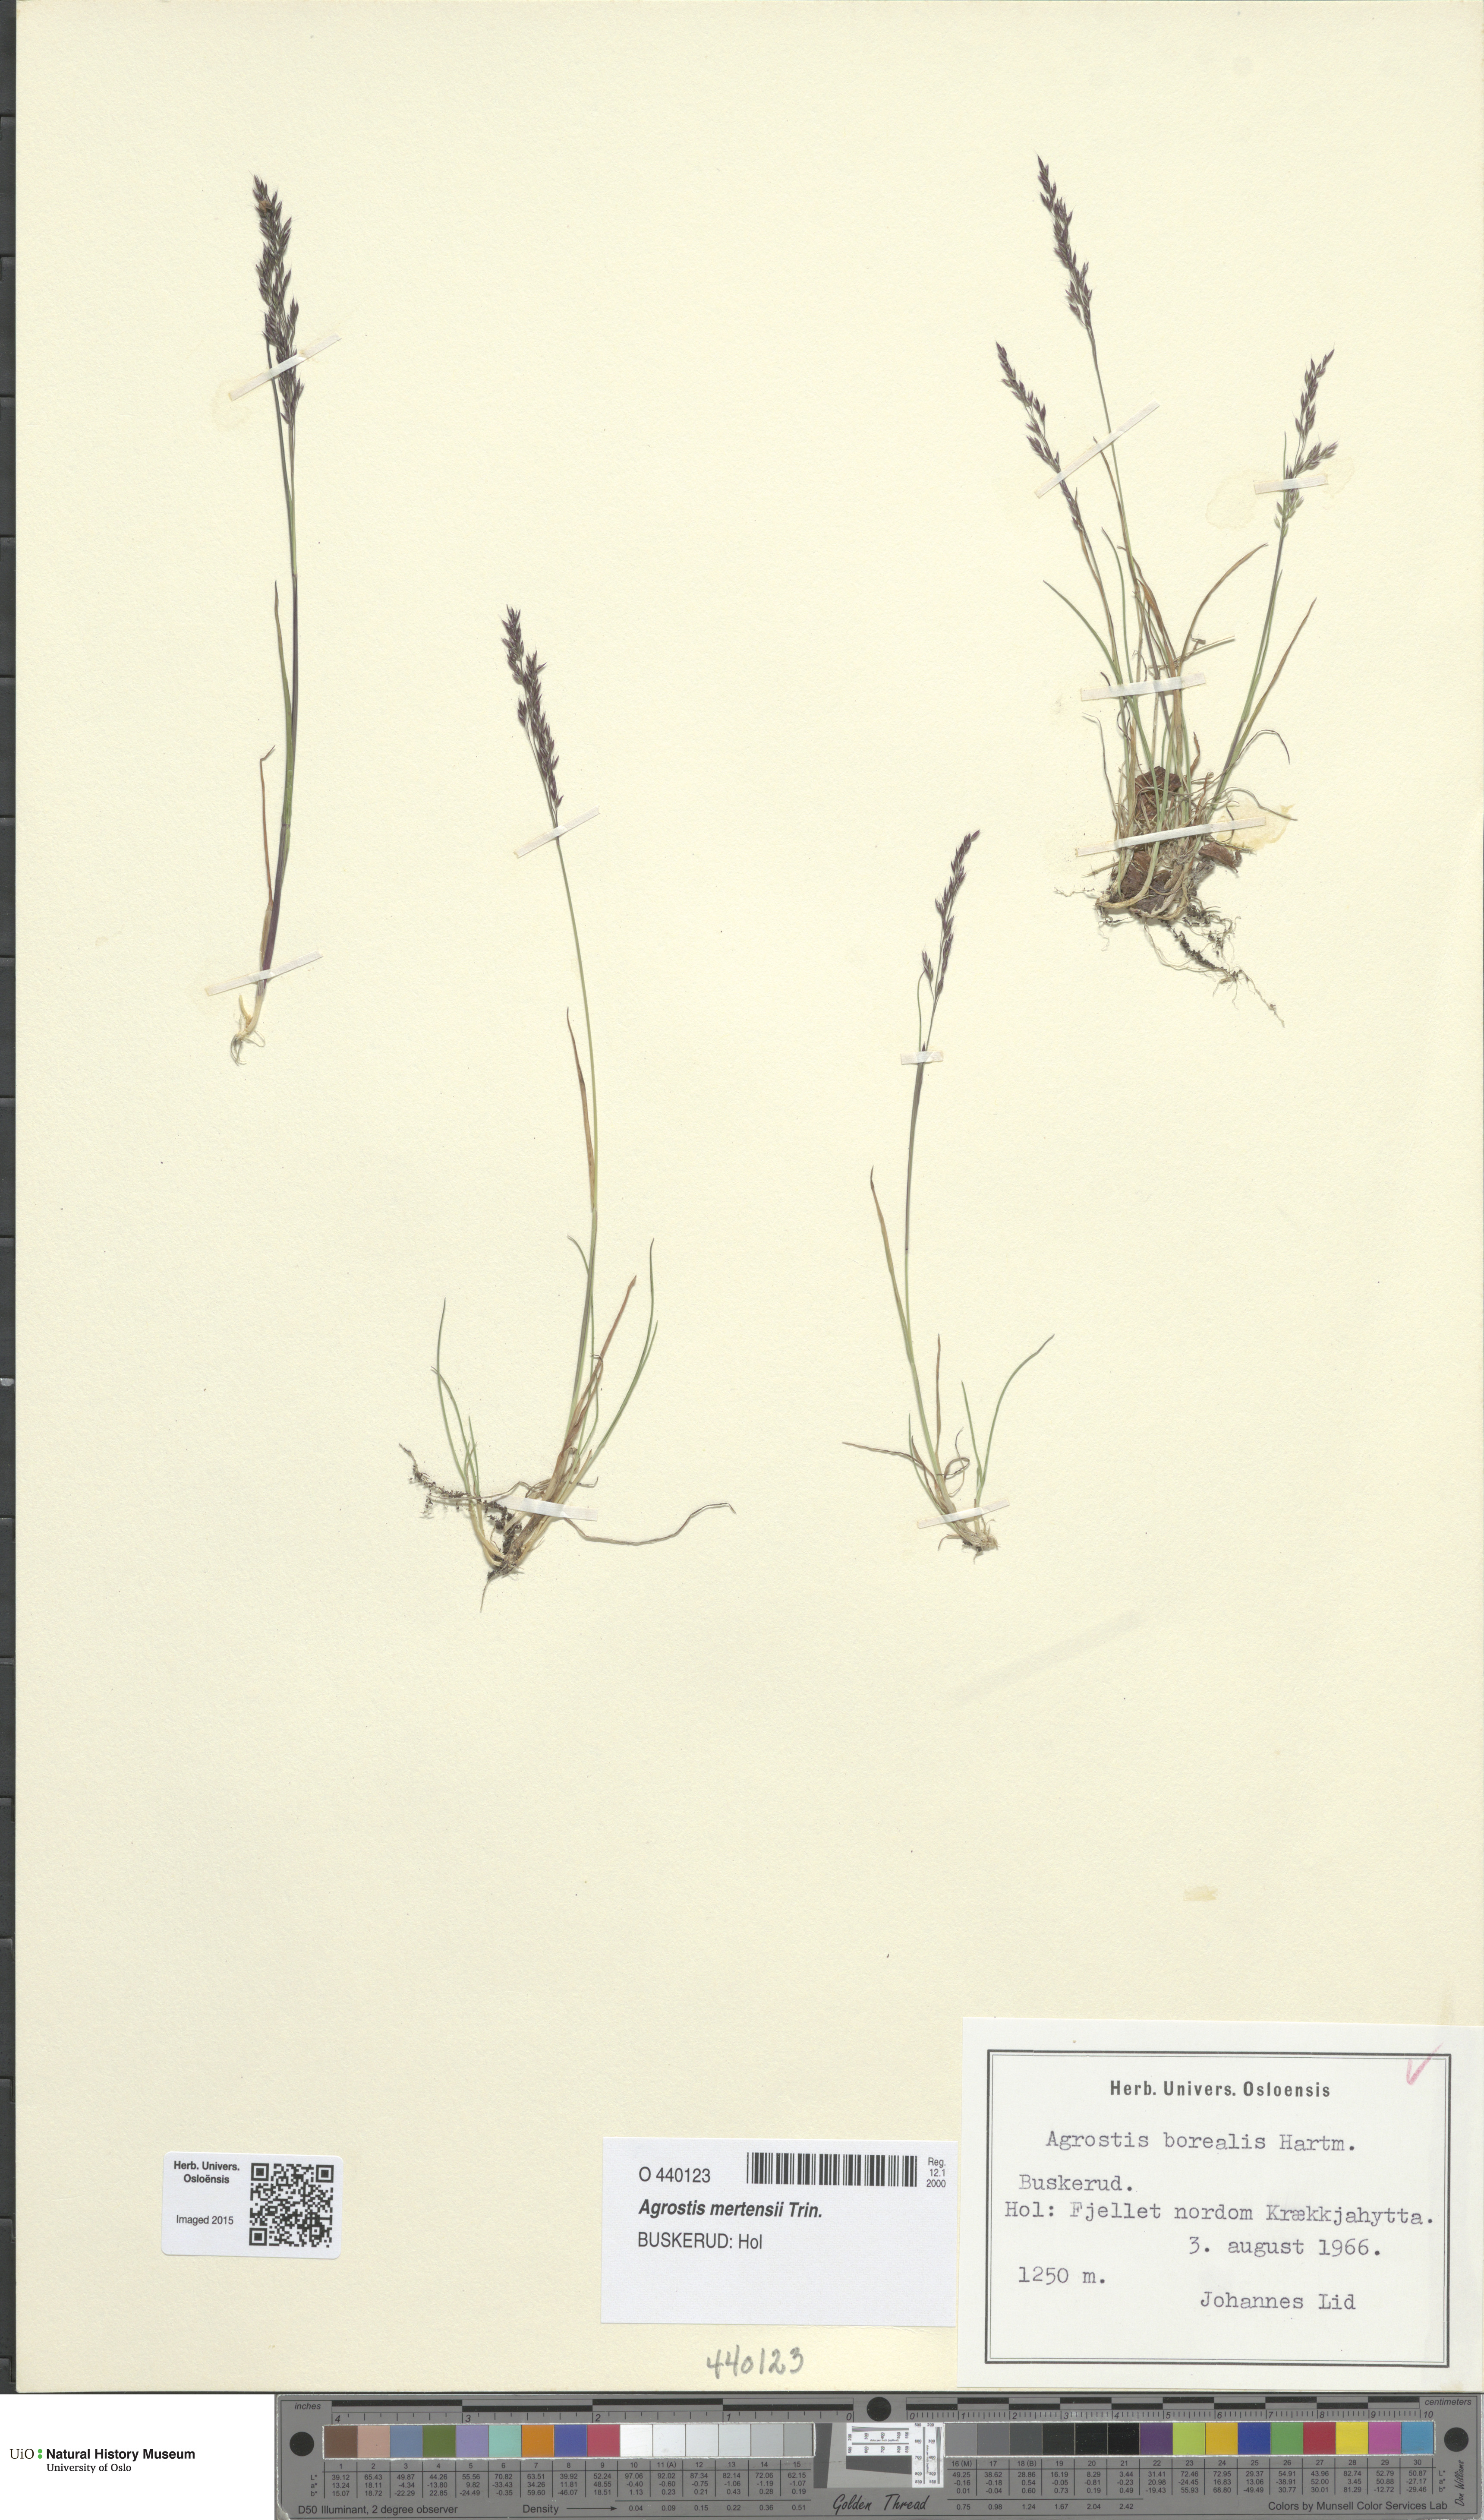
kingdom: Plantae
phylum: Tracheophyta
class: Liliopsida
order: Poales
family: Poaceae
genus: Agrostis
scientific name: Agrostis mertensii
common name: Northern bent
